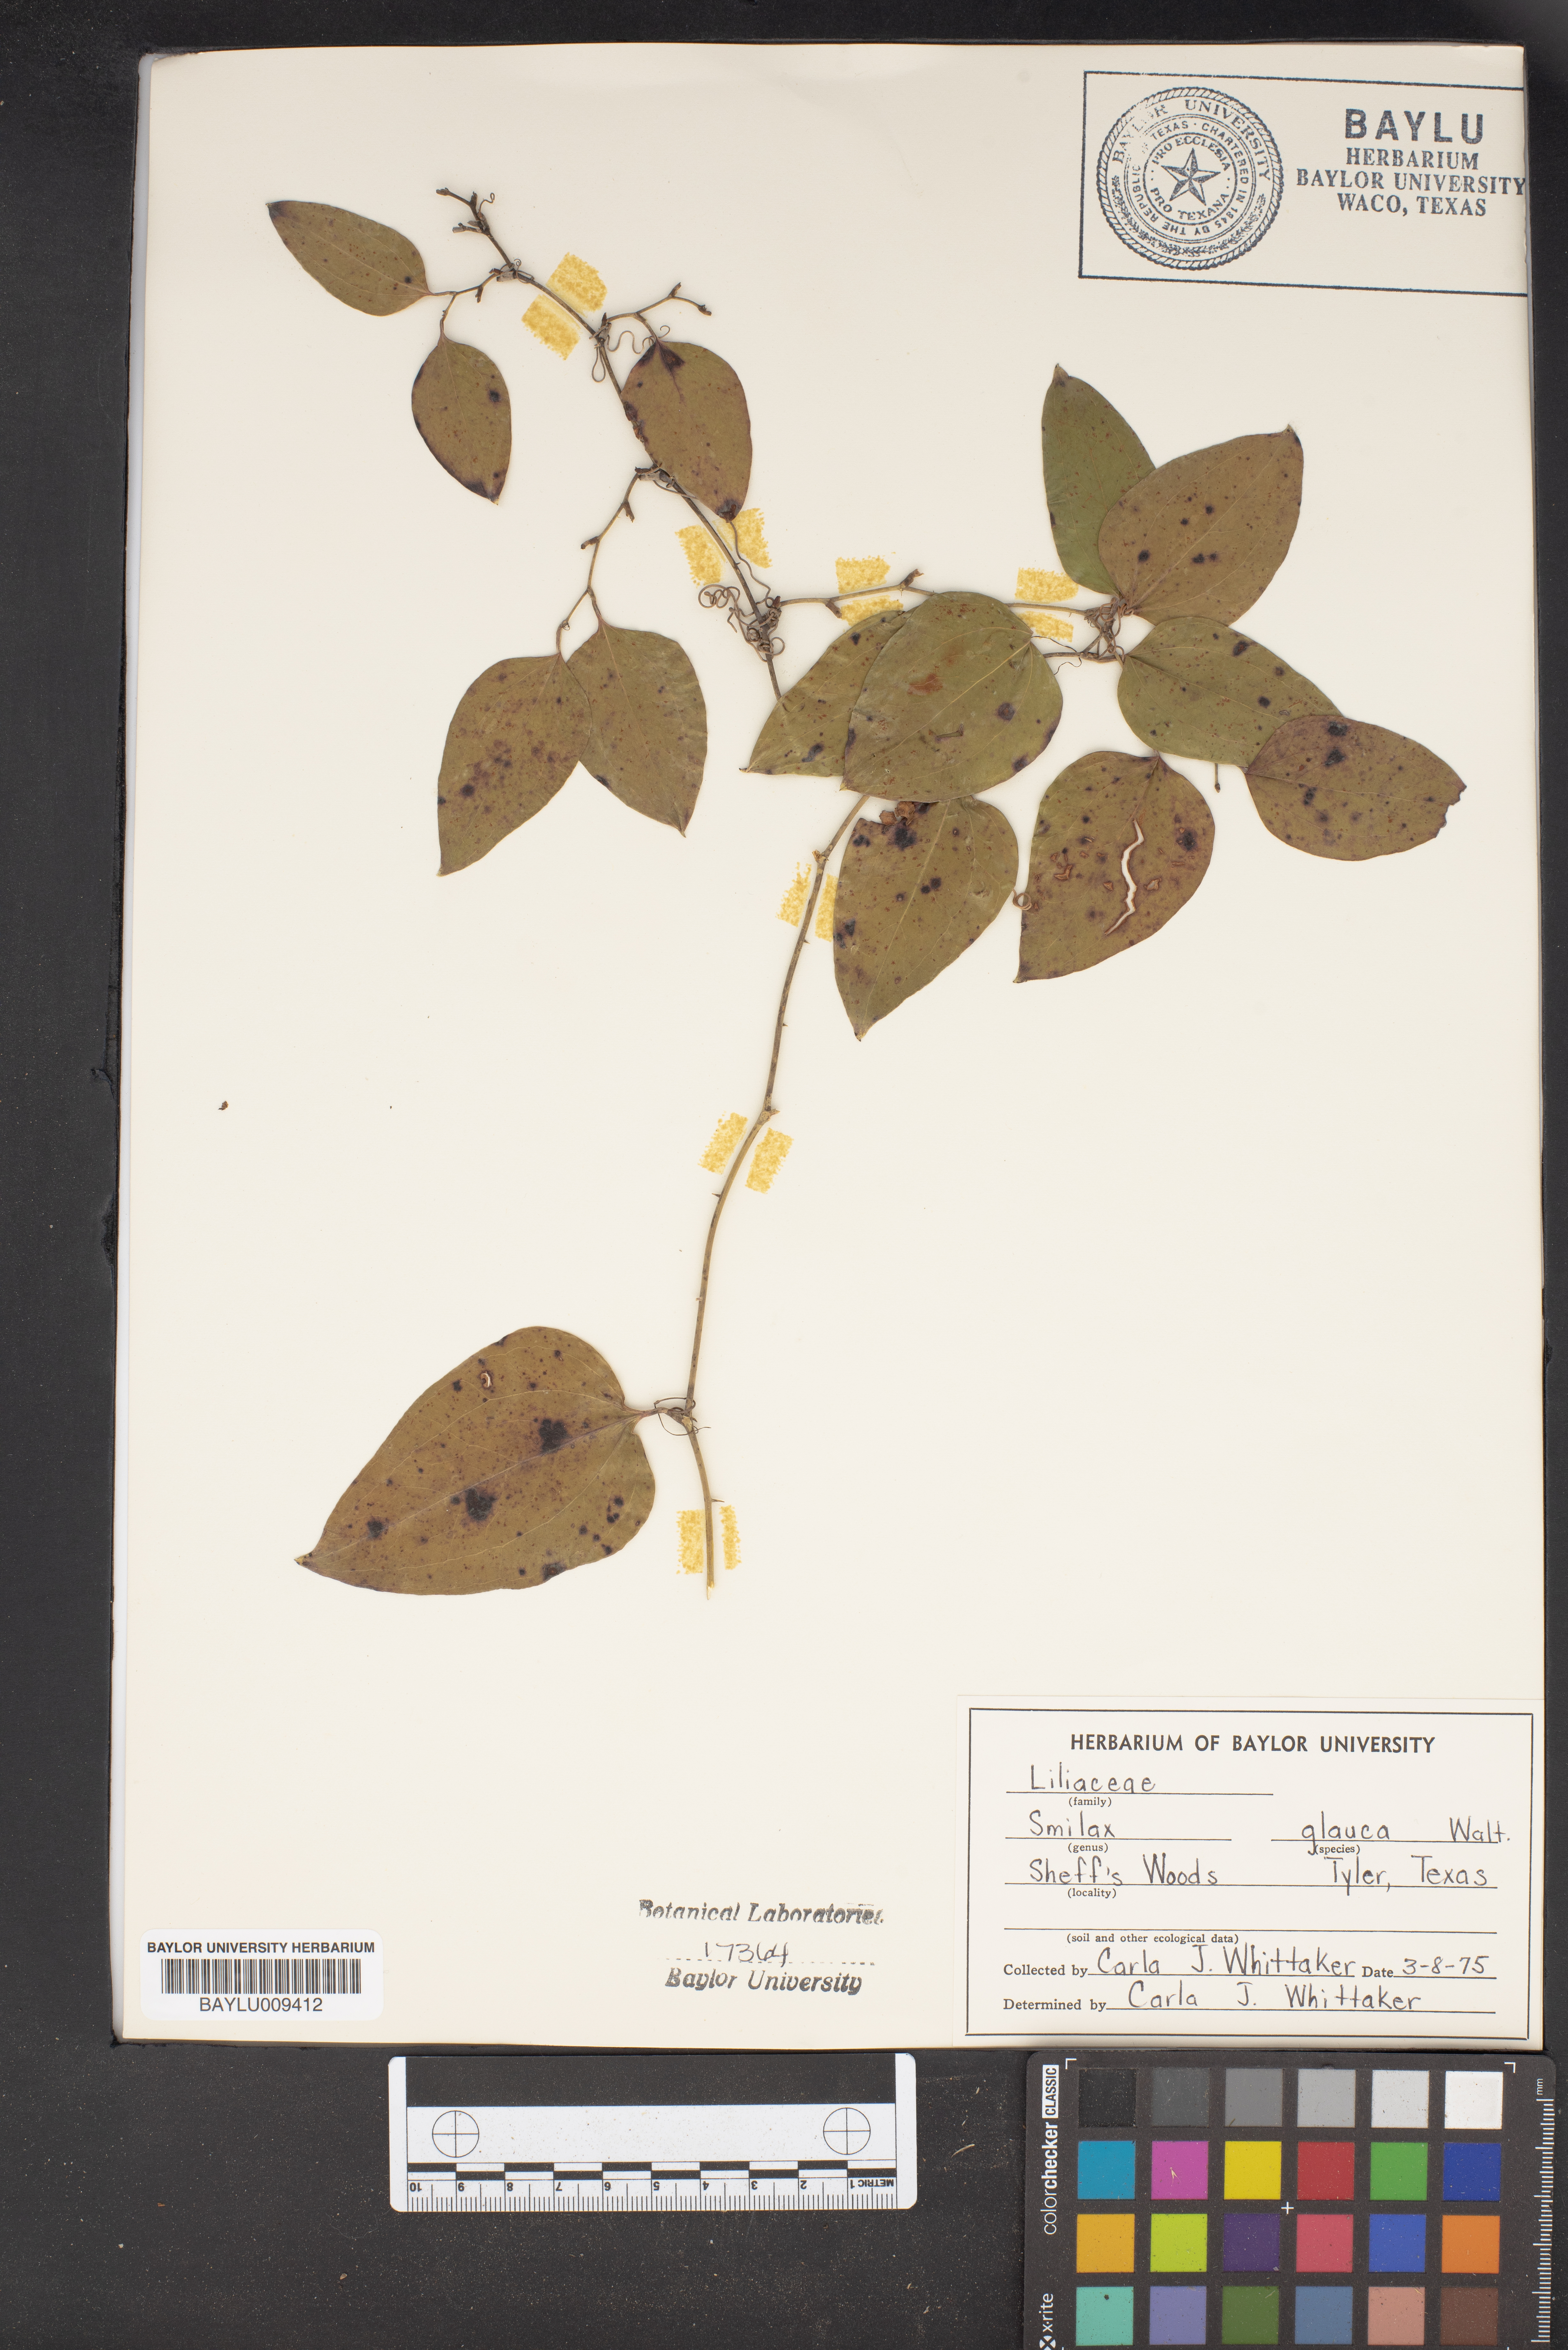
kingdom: Plantae
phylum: Tracheophyta
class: Liliopsida
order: Liliales
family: Smilacaceae
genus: Smilax
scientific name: Smilax glauca
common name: Cat greenbrier
